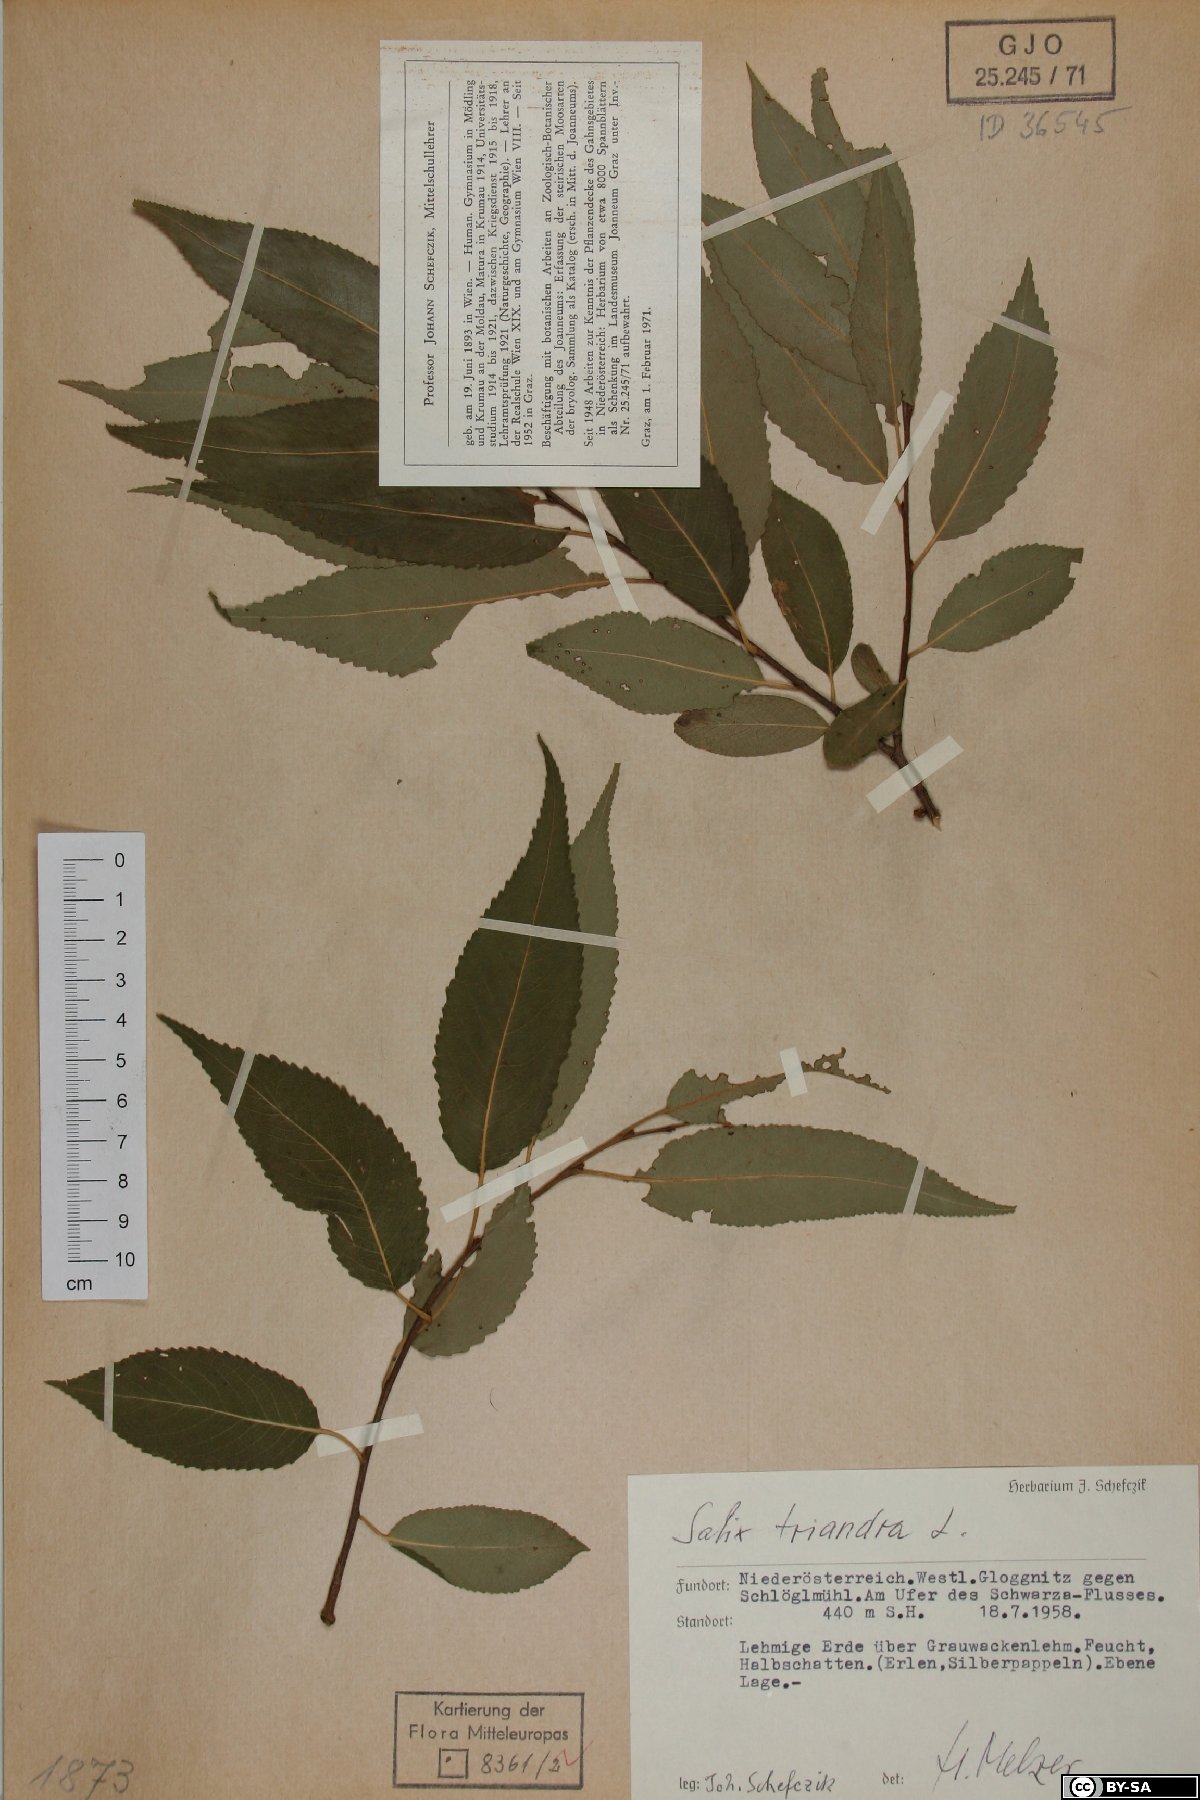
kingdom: Plantae
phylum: Tracheophyta
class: Magnoliopsida
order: Malpighiales
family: Salicaceae
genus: Salix
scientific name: Salix triandra
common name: Almond willow
